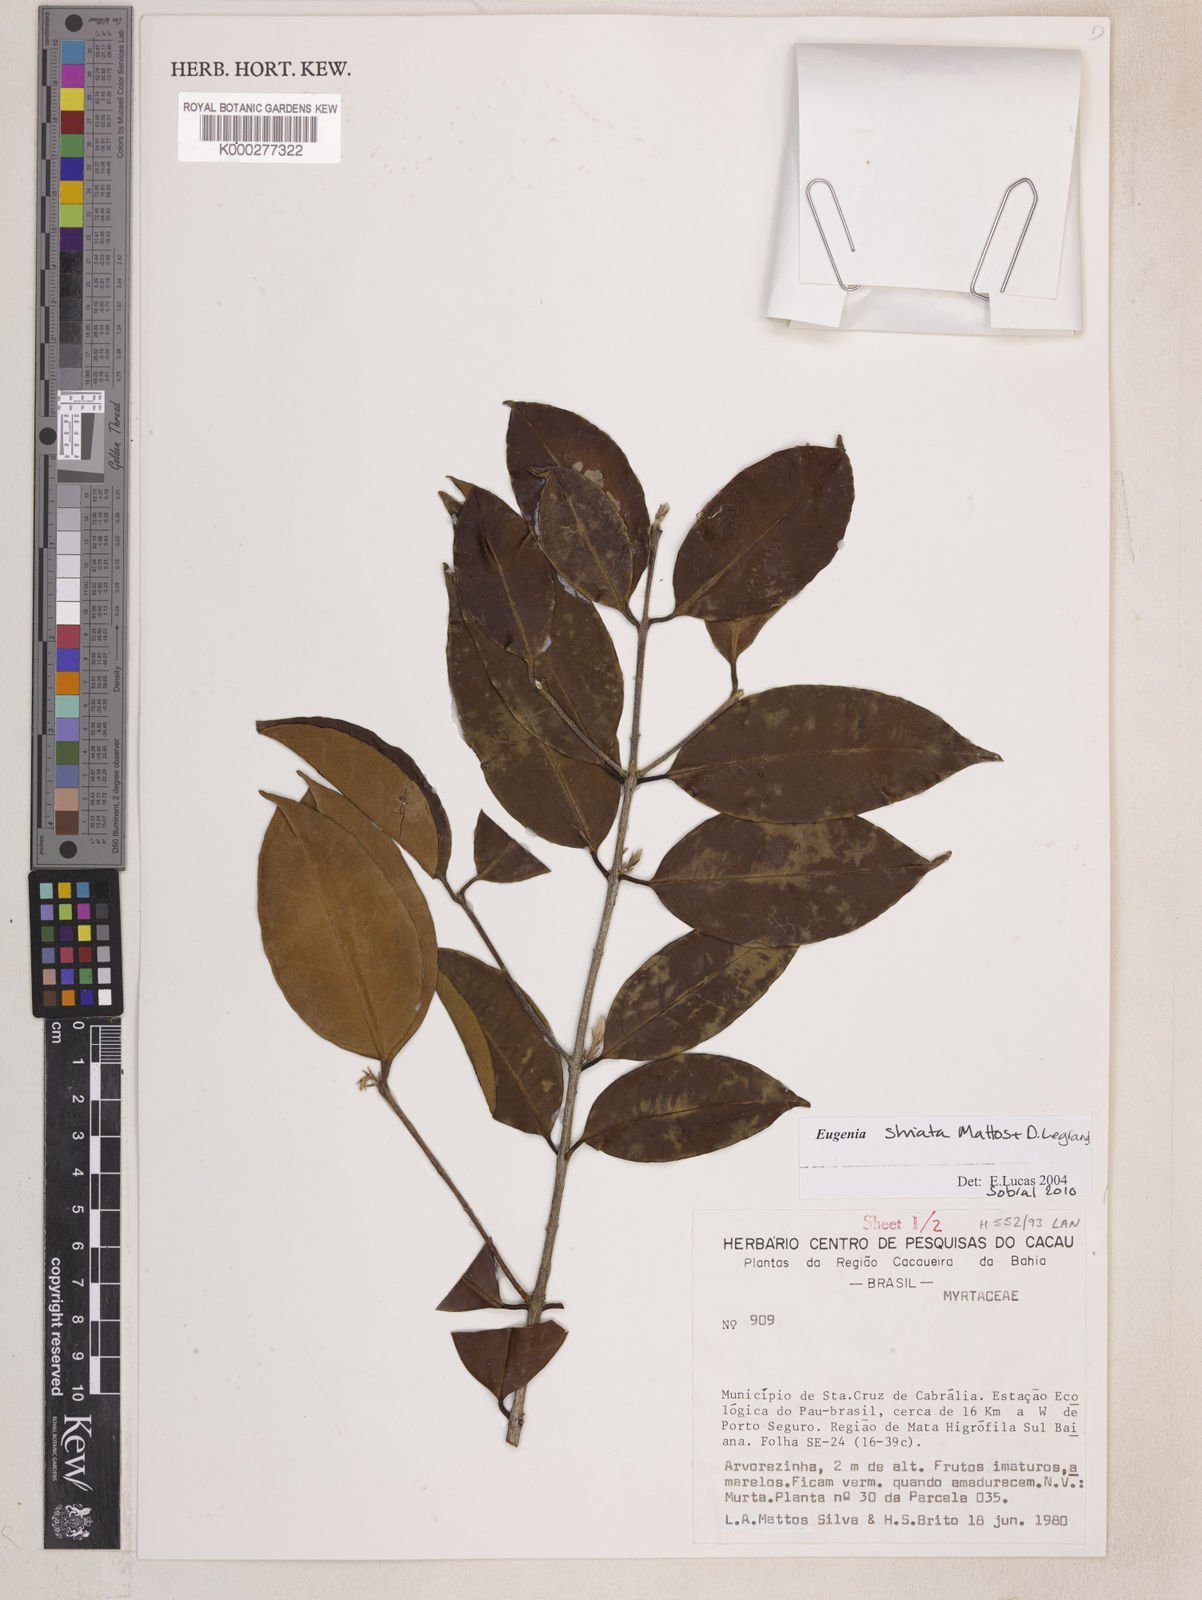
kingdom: Plantae
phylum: Tracheophyta
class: Magnoliopsida
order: Myrtales
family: Myrtaceae
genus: Eugenia
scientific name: Eugenia oblongata
